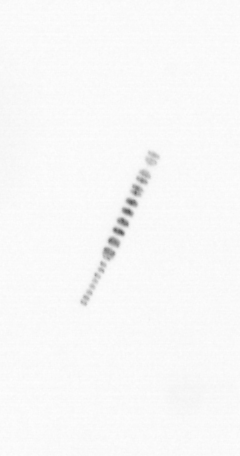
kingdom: Chromista
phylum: Ochrophyta
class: Bacillariophyceae
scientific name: Bacillariophyceae
